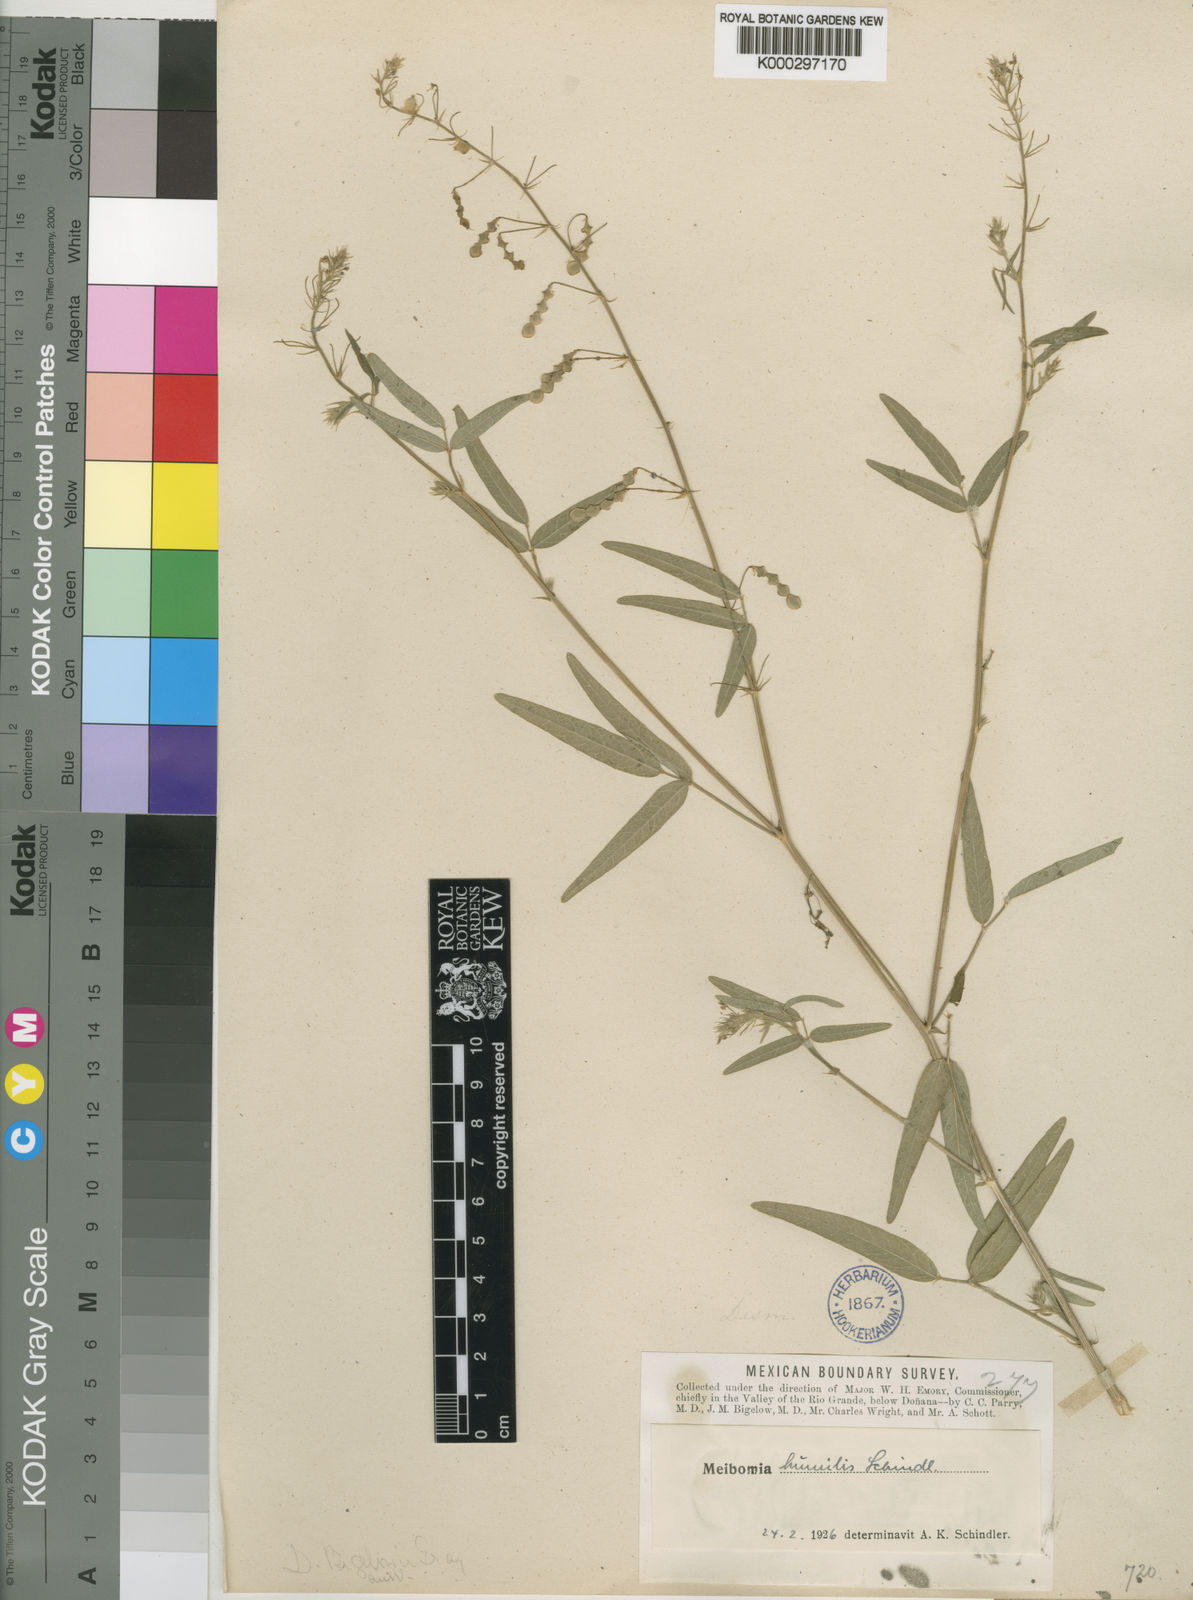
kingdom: Plantae
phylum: Tracheophyta
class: Magnoliopsida
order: Fabales
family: Fabaceae
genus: Desmodium
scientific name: Desmodium procumbens
